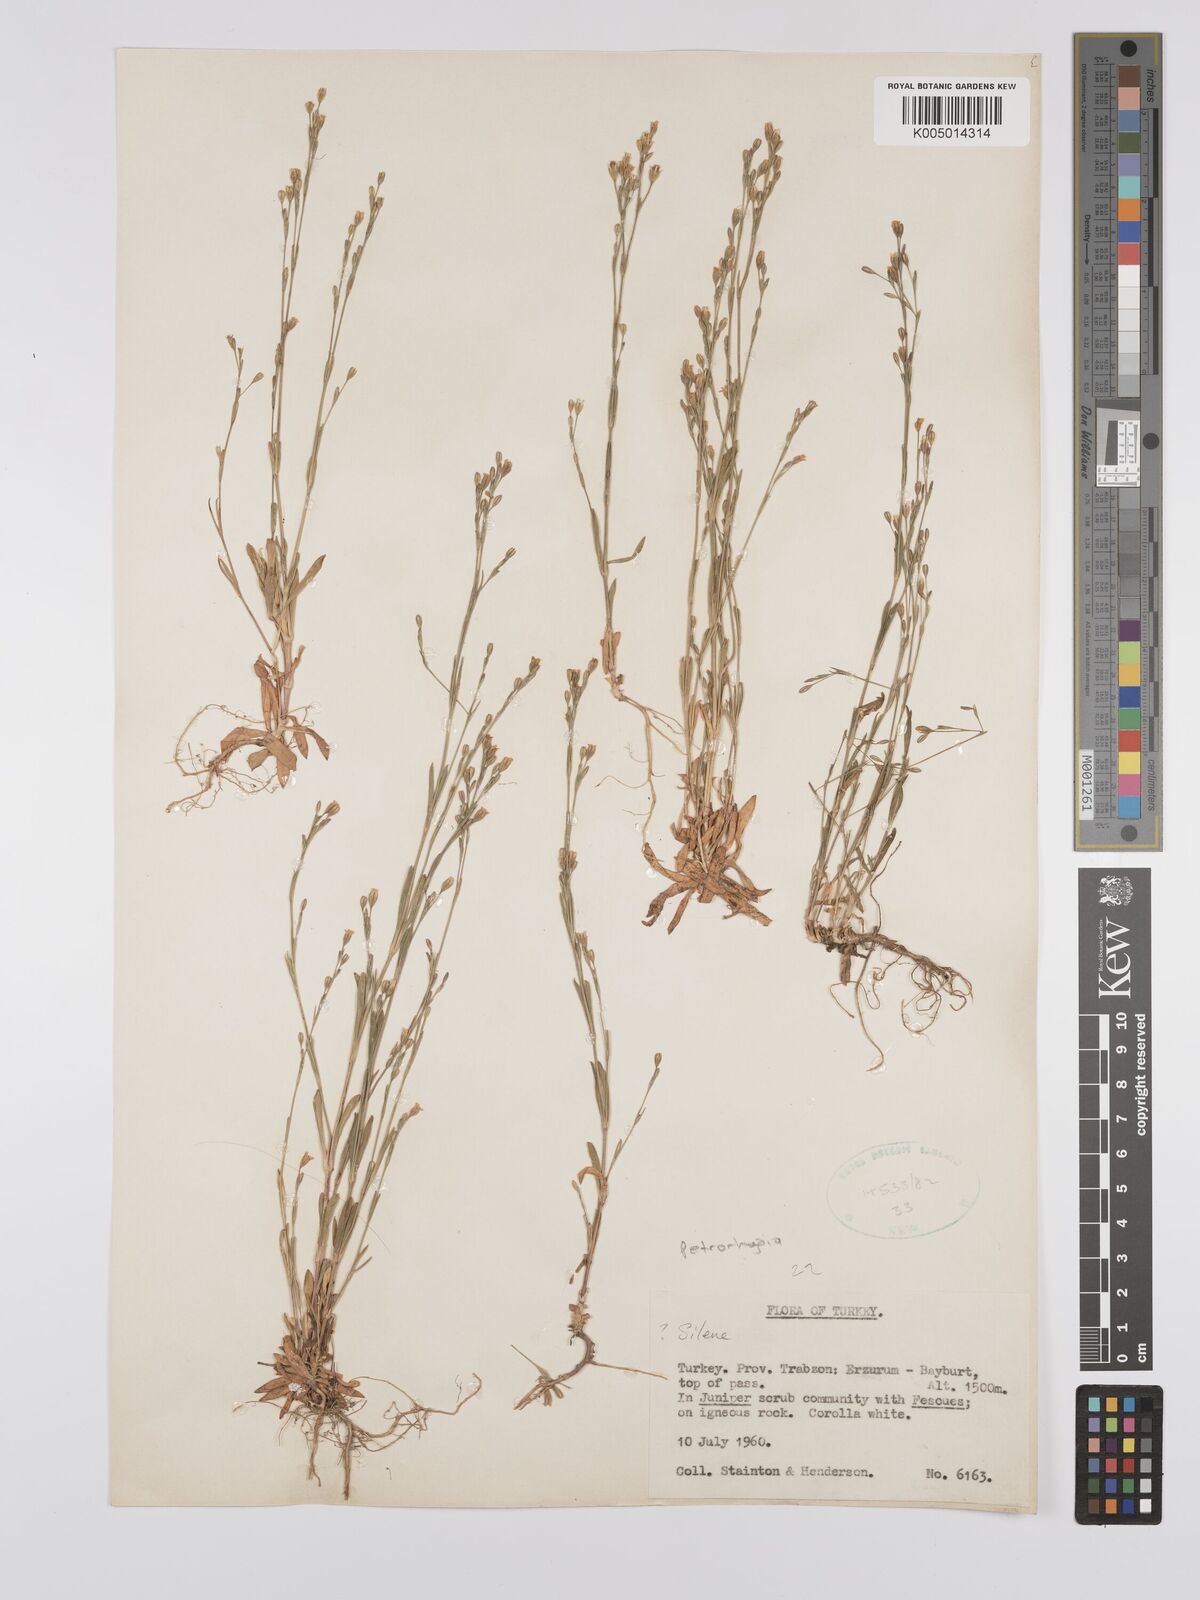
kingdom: Plantae
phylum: Tracheophyta
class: Magnoliopsida
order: Caryophyllales
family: Caryophyllaceae
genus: Silene
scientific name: Silene
